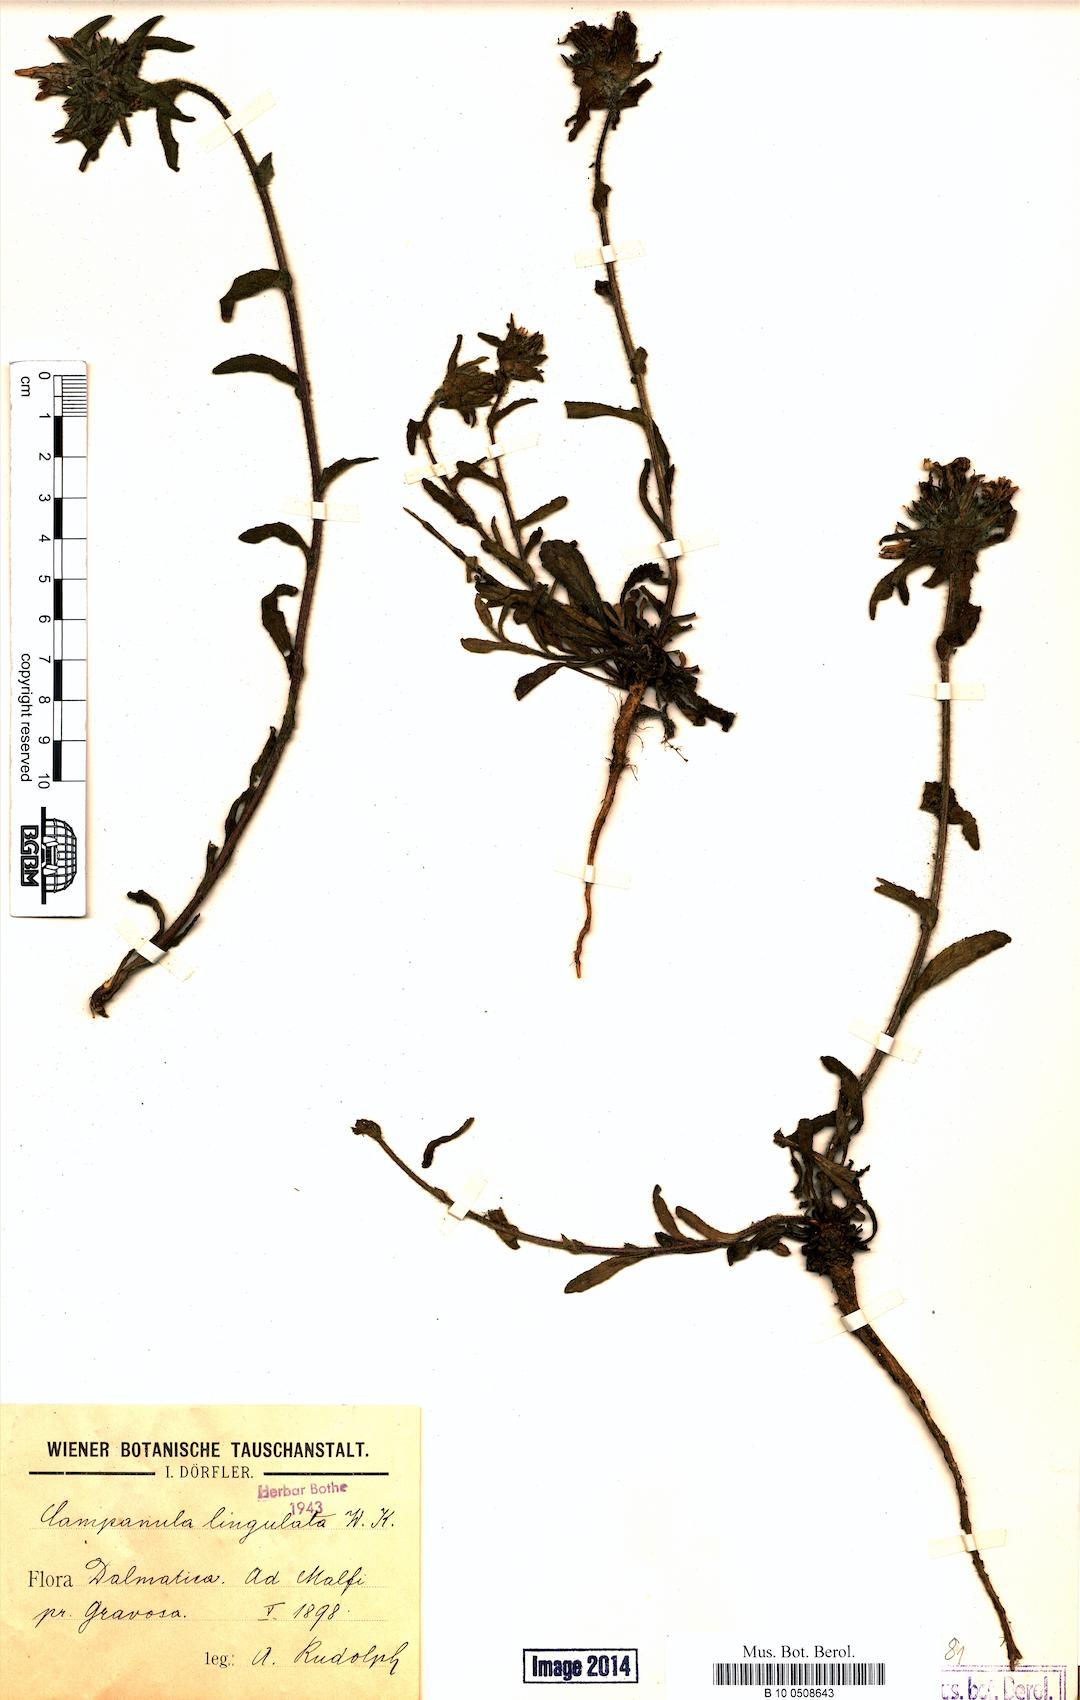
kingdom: Plantae
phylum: Tracheophyta
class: Magnoliopsida
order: Asterales
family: Campanulaceae
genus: Campanula
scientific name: Campanula lingulata
